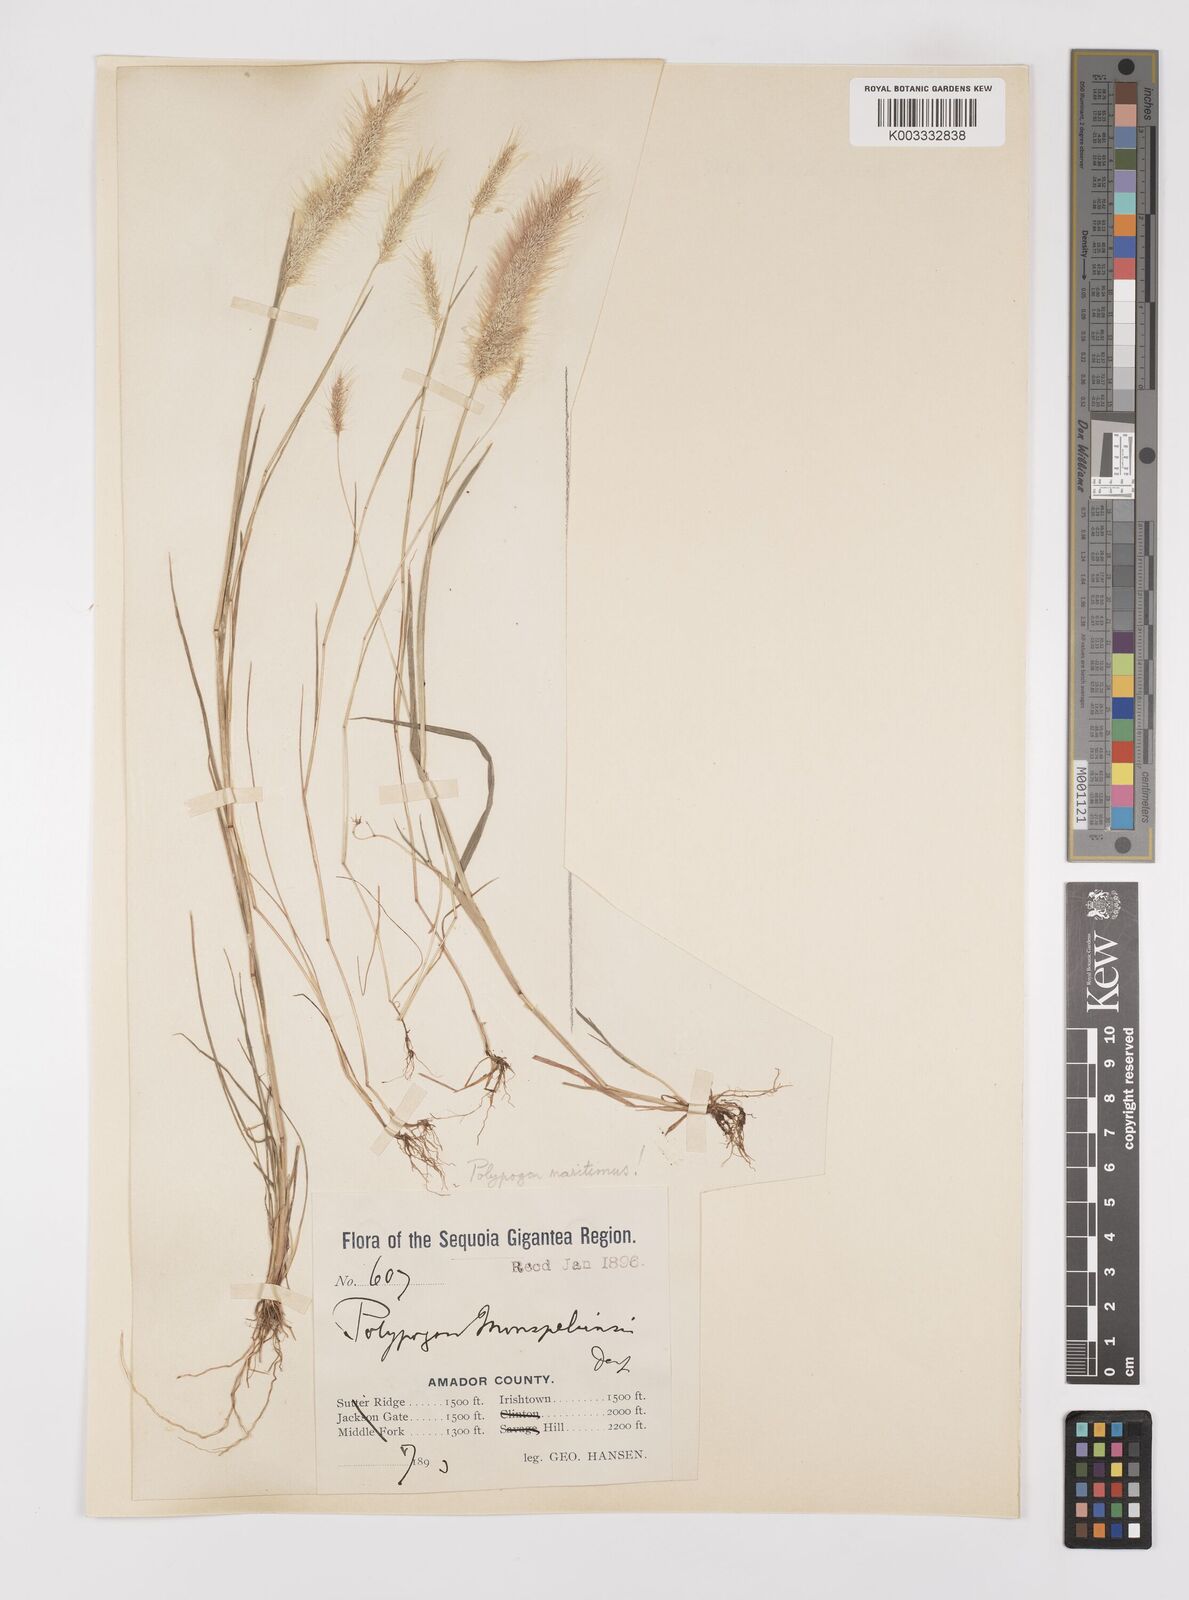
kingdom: Plantae
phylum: Tracheophyta
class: Liliopsida
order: Poales
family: Poaceae
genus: Polypogon
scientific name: Polypogon maritimus
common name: Mediterranean rabbitsfoot grass
